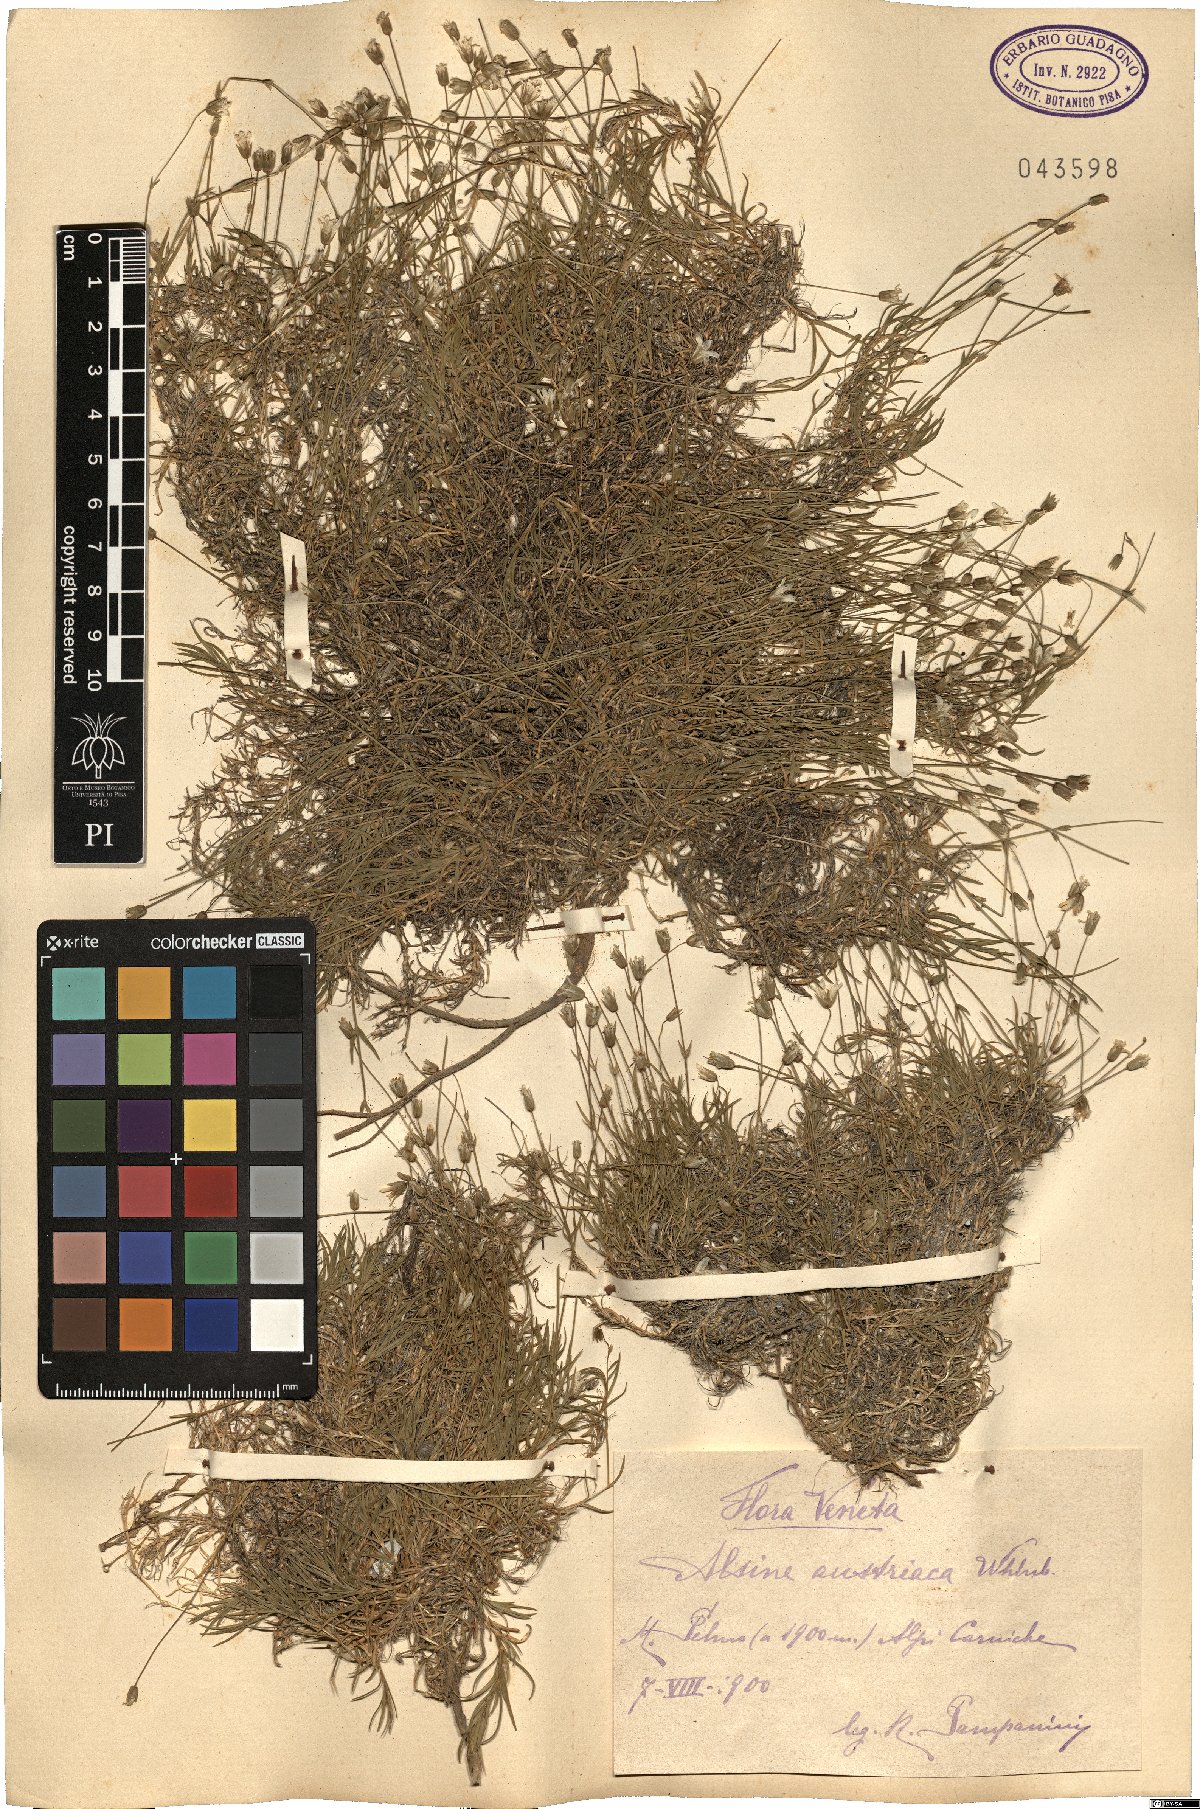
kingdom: Plantae
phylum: Tracheophyta
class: Magnoliopsida
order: Caryophyllales
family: Caryophyllaceae
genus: Sabulina
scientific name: Sabulina austriaca
